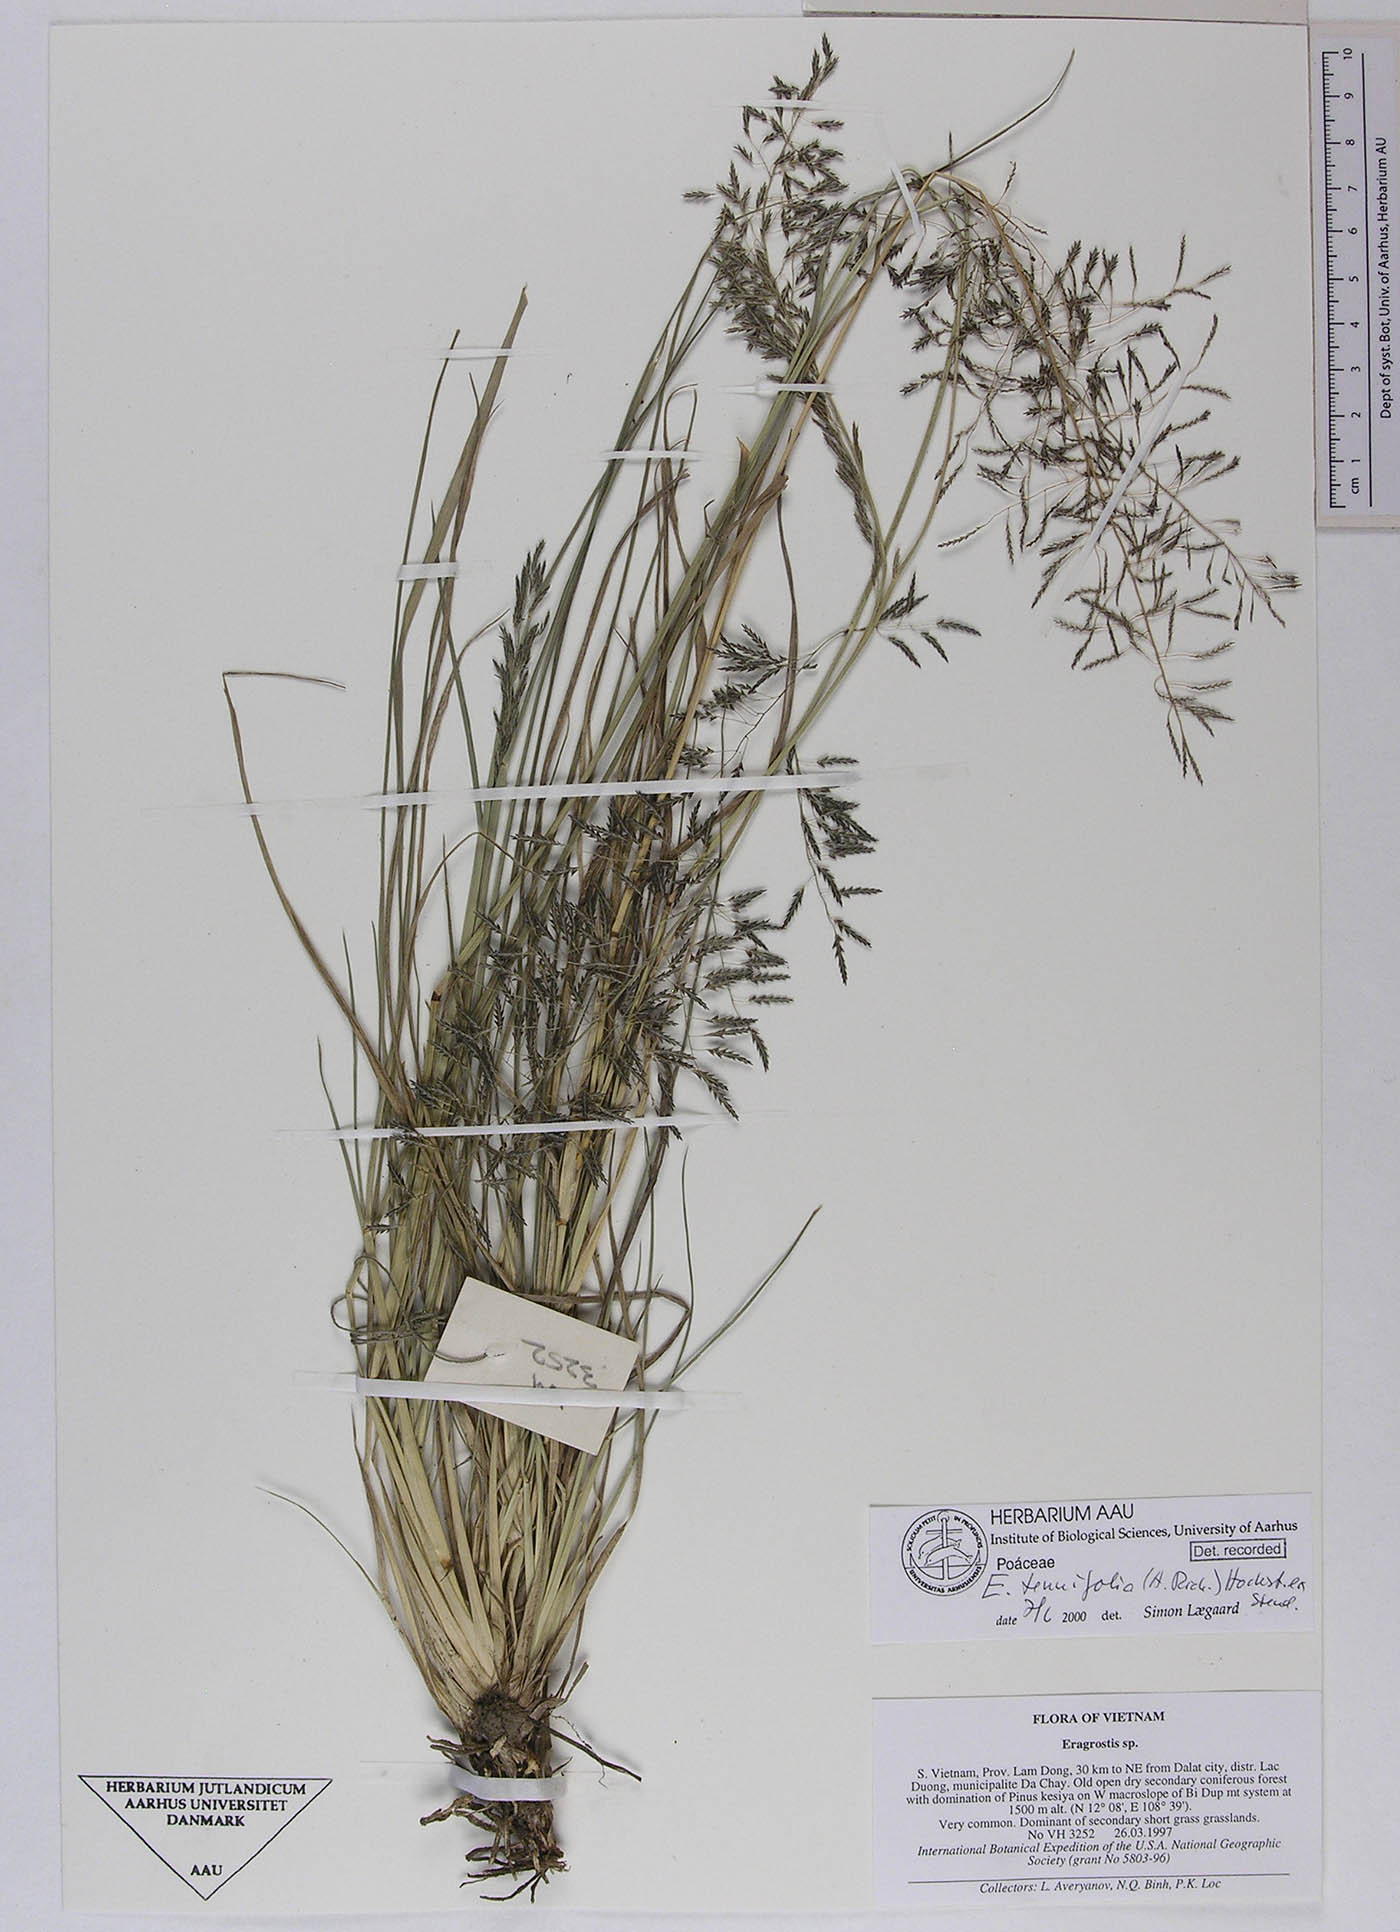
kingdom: Plantae
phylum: Tracheophyta
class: Liliopsida
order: Poales
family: Poaceae
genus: Eragrostis
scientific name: Eragrostis tenuifolia
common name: Elastic grass
